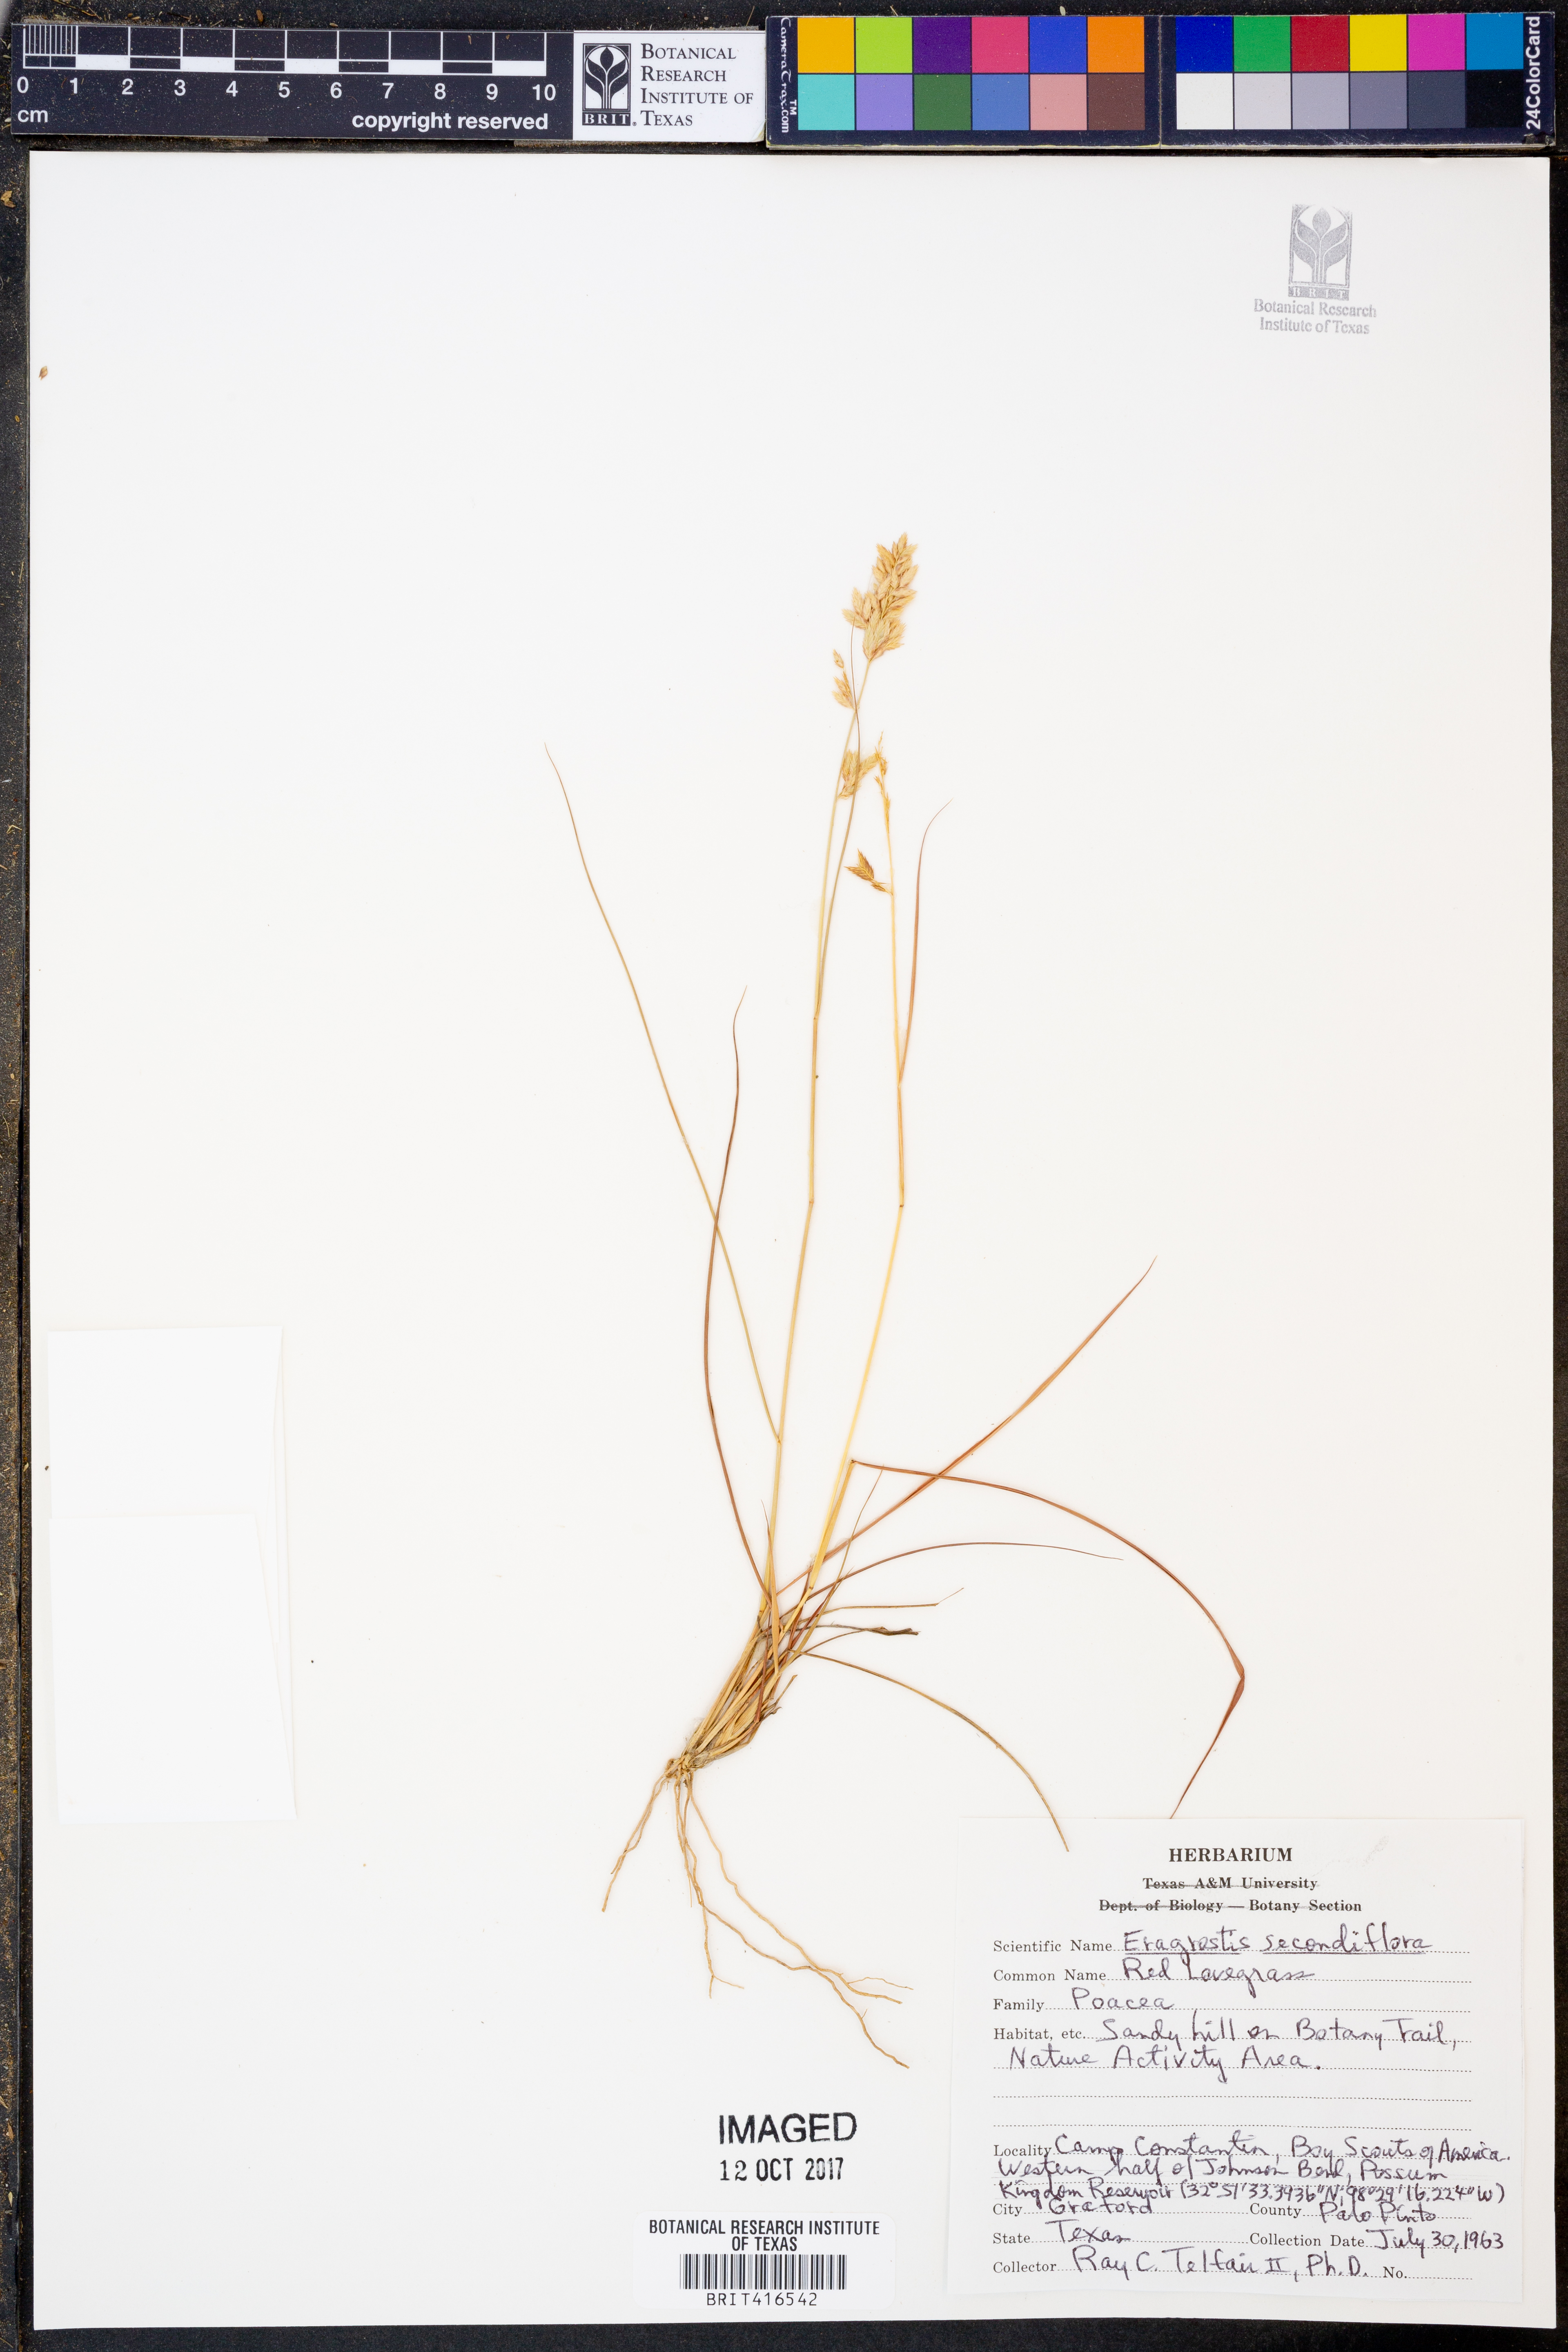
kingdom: Plantae
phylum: Tracheophyta
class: Liliopsida
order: Poales
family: Poaceae
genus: Eragrostis
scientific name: Eragrostis secundiflora
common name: Red love grass
